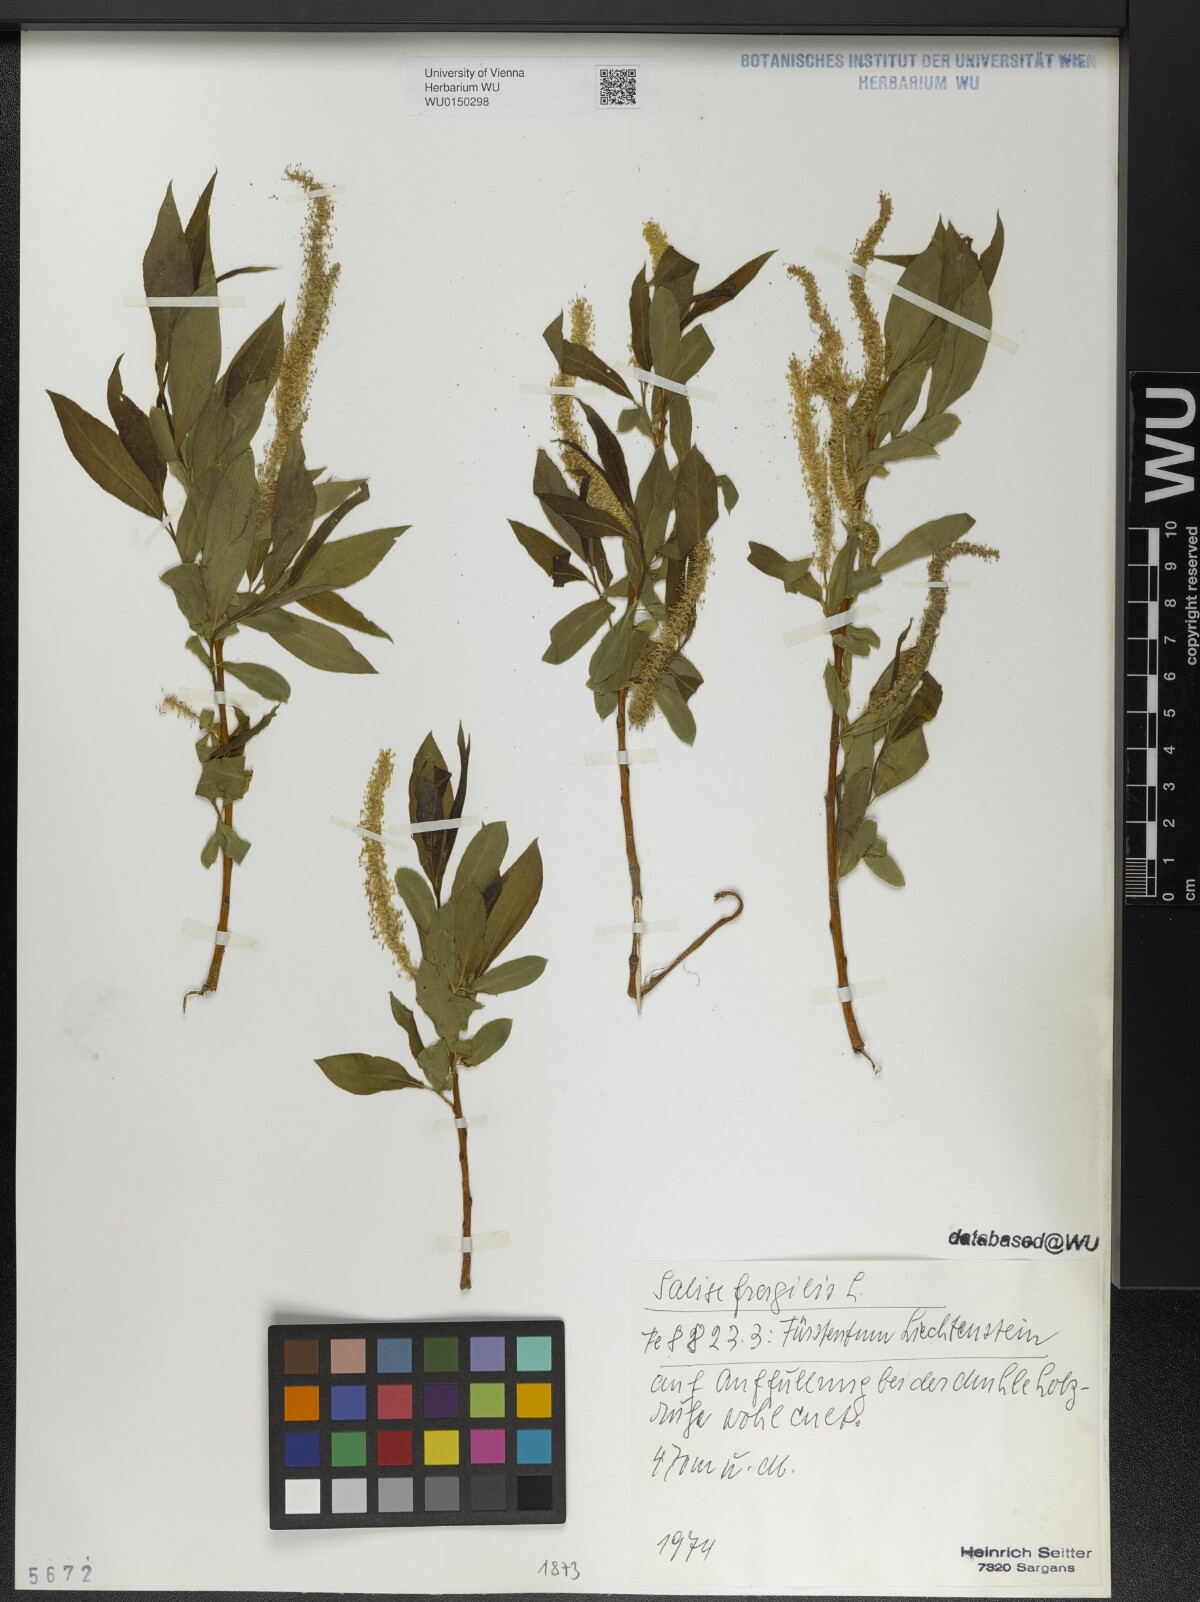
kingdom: Plantae
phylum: Tracheophyta
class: Magnoliopsida
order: Malpighiales
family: Salicaceae
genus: Salix
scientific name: Salix fragilis
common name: Crack willow
